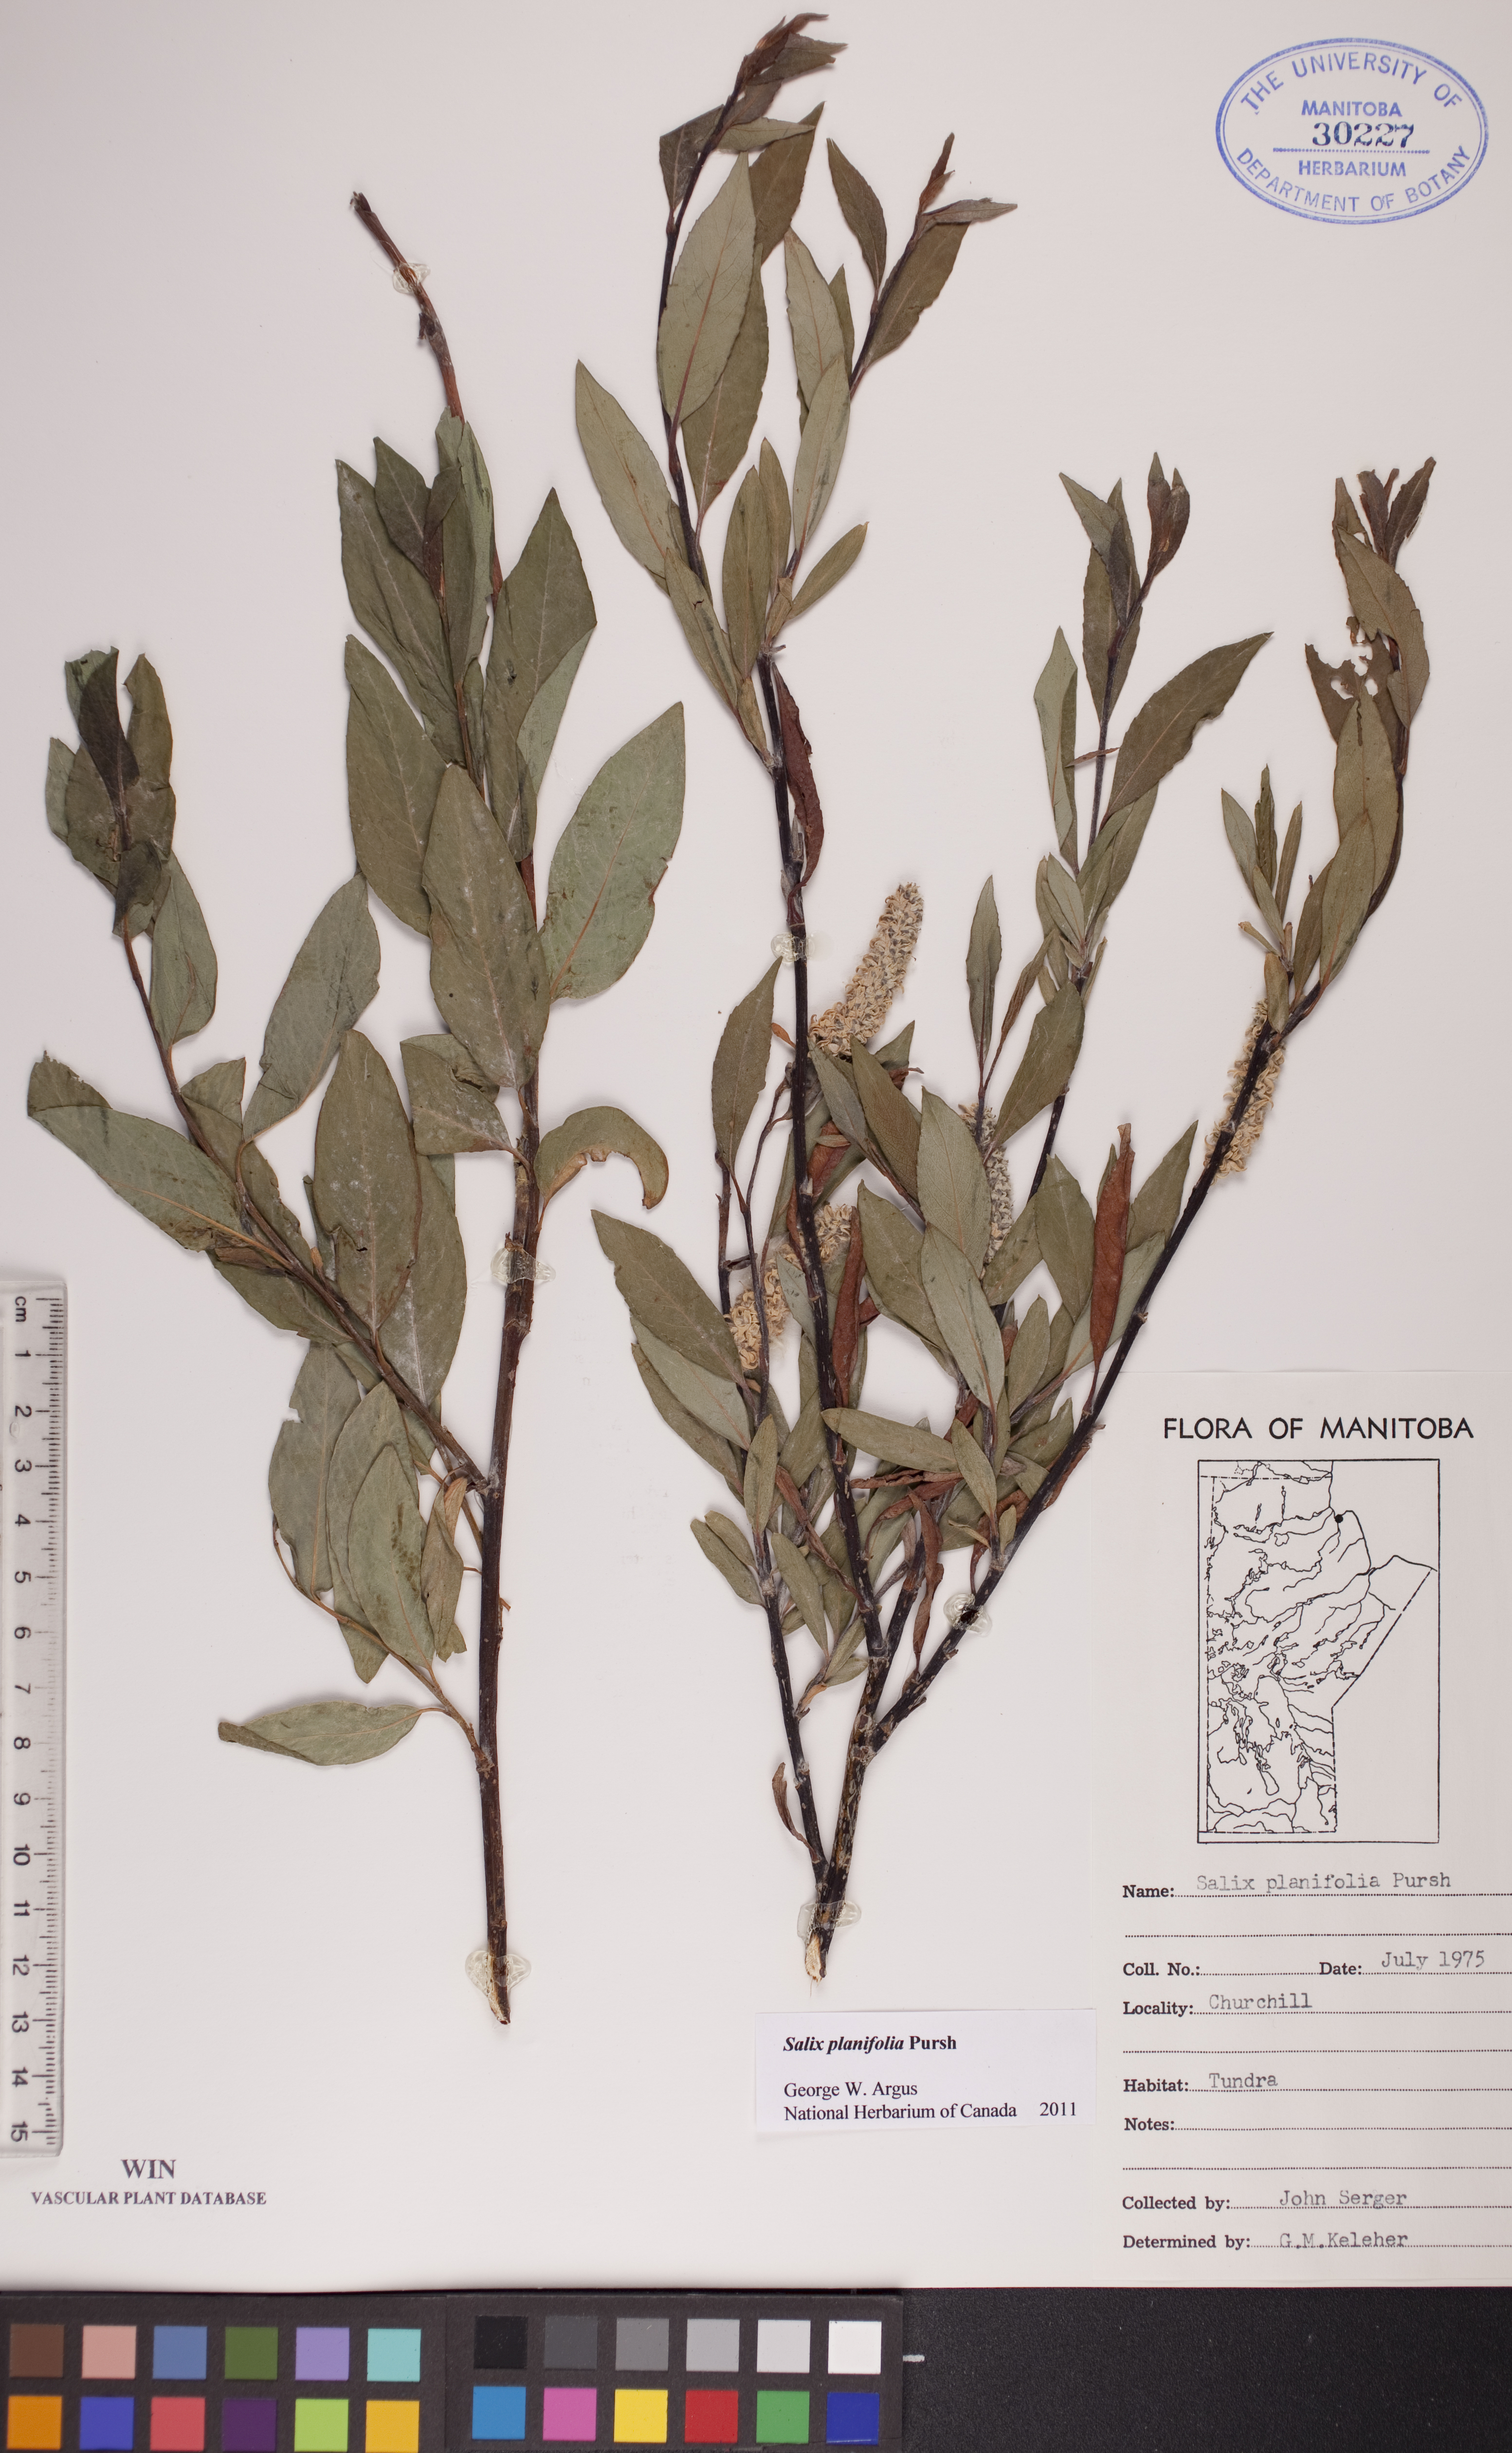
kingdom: Plantae
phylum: Tracheophyta
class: Magnoliopsida
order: Malpighiales
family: Salicaceae
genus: Salix
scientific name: Salix planifolia
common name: Mountain willow
